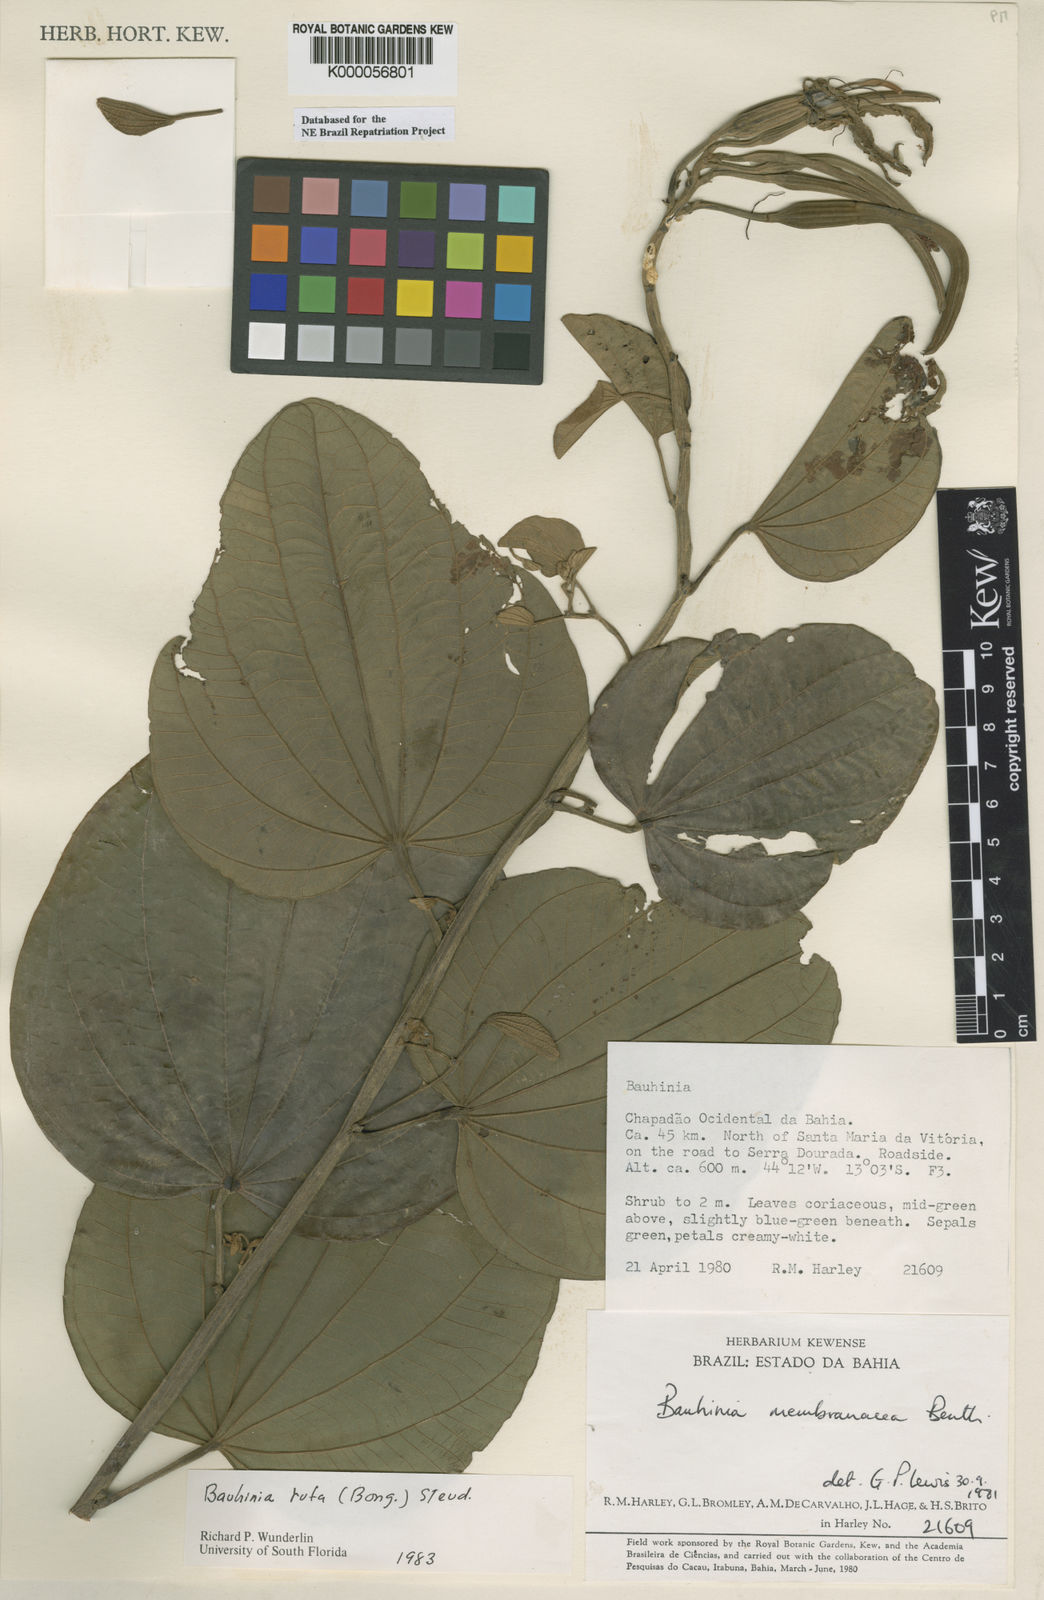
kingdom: Plantae
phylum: Tracheophyta
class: Magnoliopsida
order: Fabales
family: Fabaceae
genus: Bauhinia
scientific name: Bauhinia rufa
